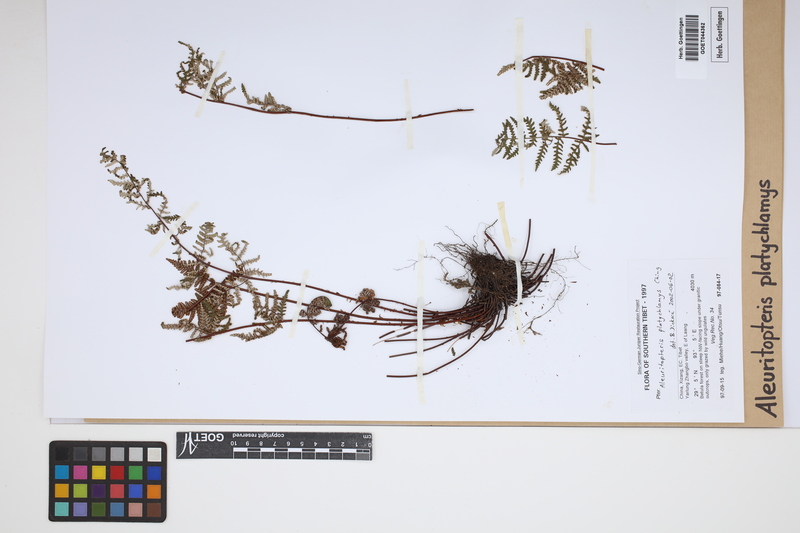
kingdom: Plantae
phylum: Tracheophyta
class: Polypodiopsida
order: Polypodiales
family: Pteridaceae
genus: Aleuritopteris
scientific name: Aleuritopteris grisea
